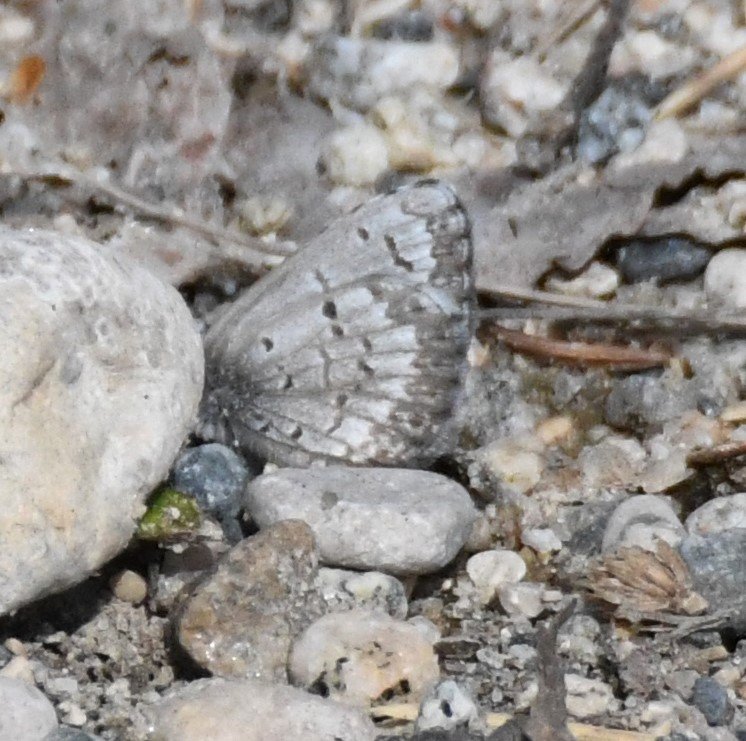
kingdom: Animalia
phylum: Arthropoda
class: Insecta
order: Lepidoptera
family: Lycaenidae
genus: Celastrina
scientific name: Celastrina lucia
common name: Northern Spring Azure
